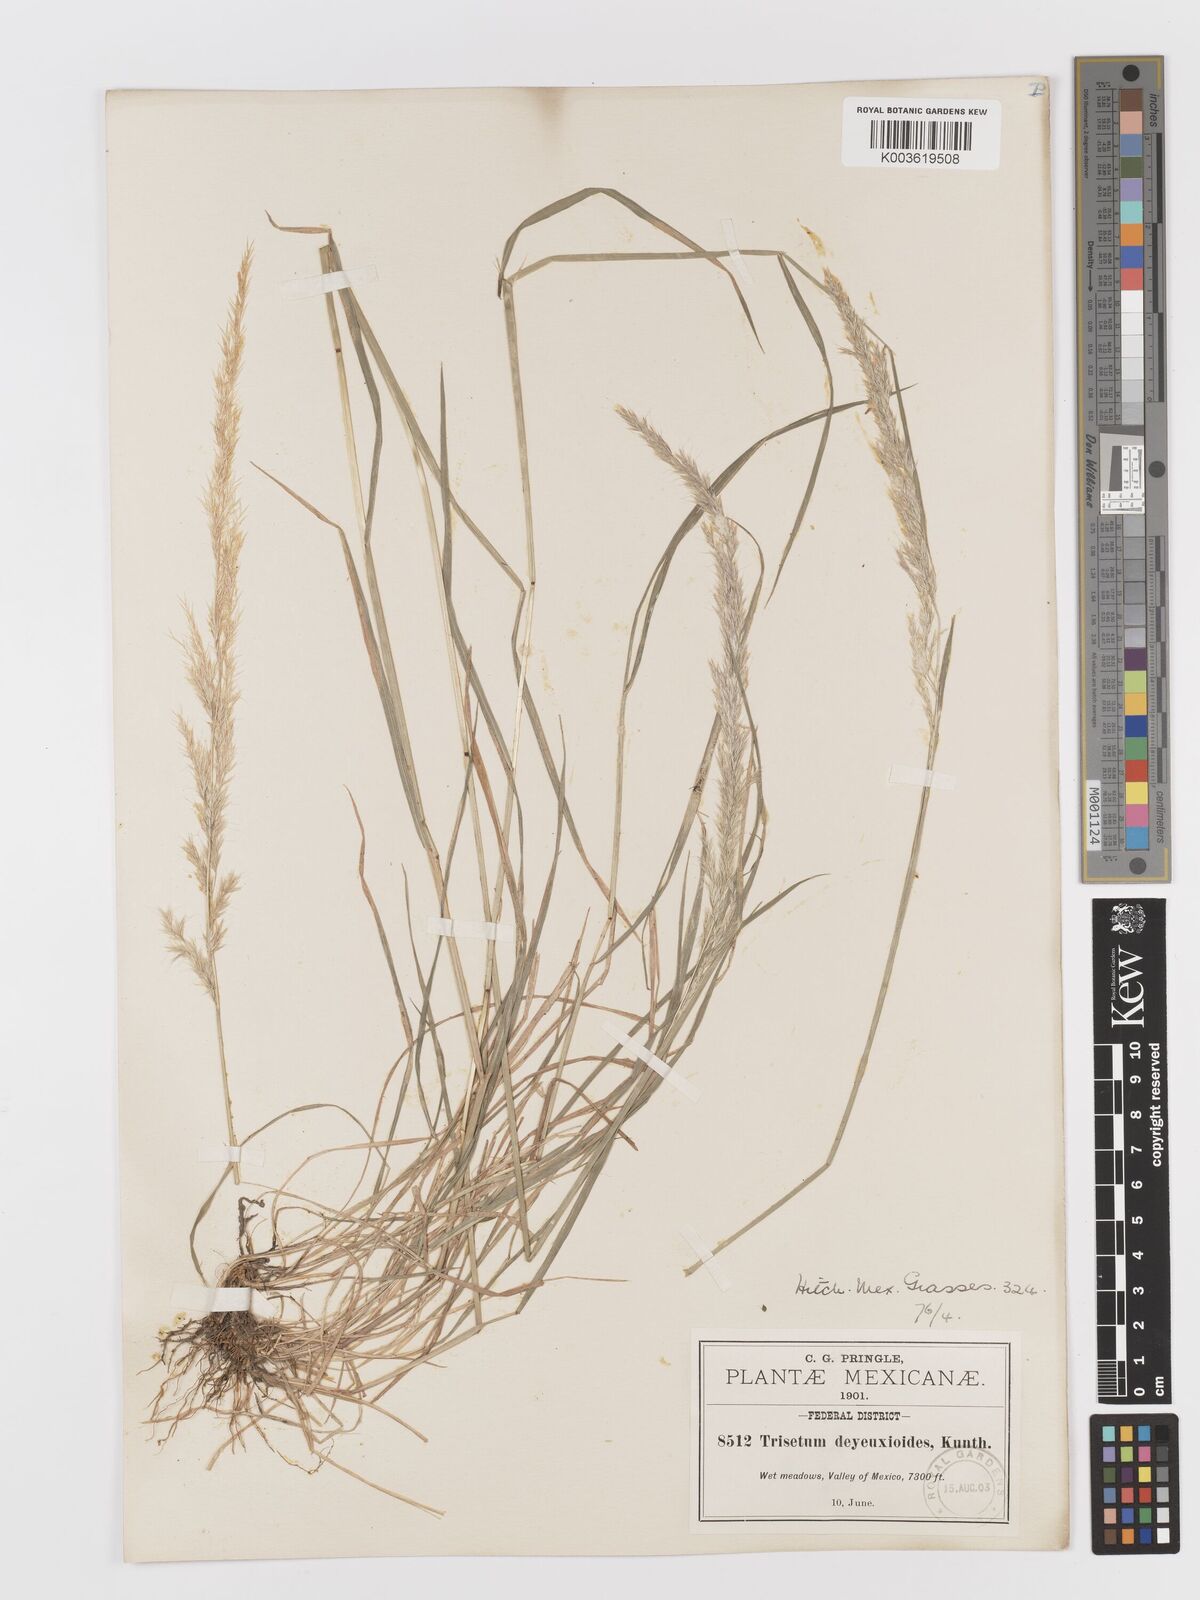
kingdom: Plantae
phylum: Tracheophyta
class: Liliopsida
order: Poales
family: Poaceae
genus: Peyritschia
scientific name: Peyritschia deyeuxioides
